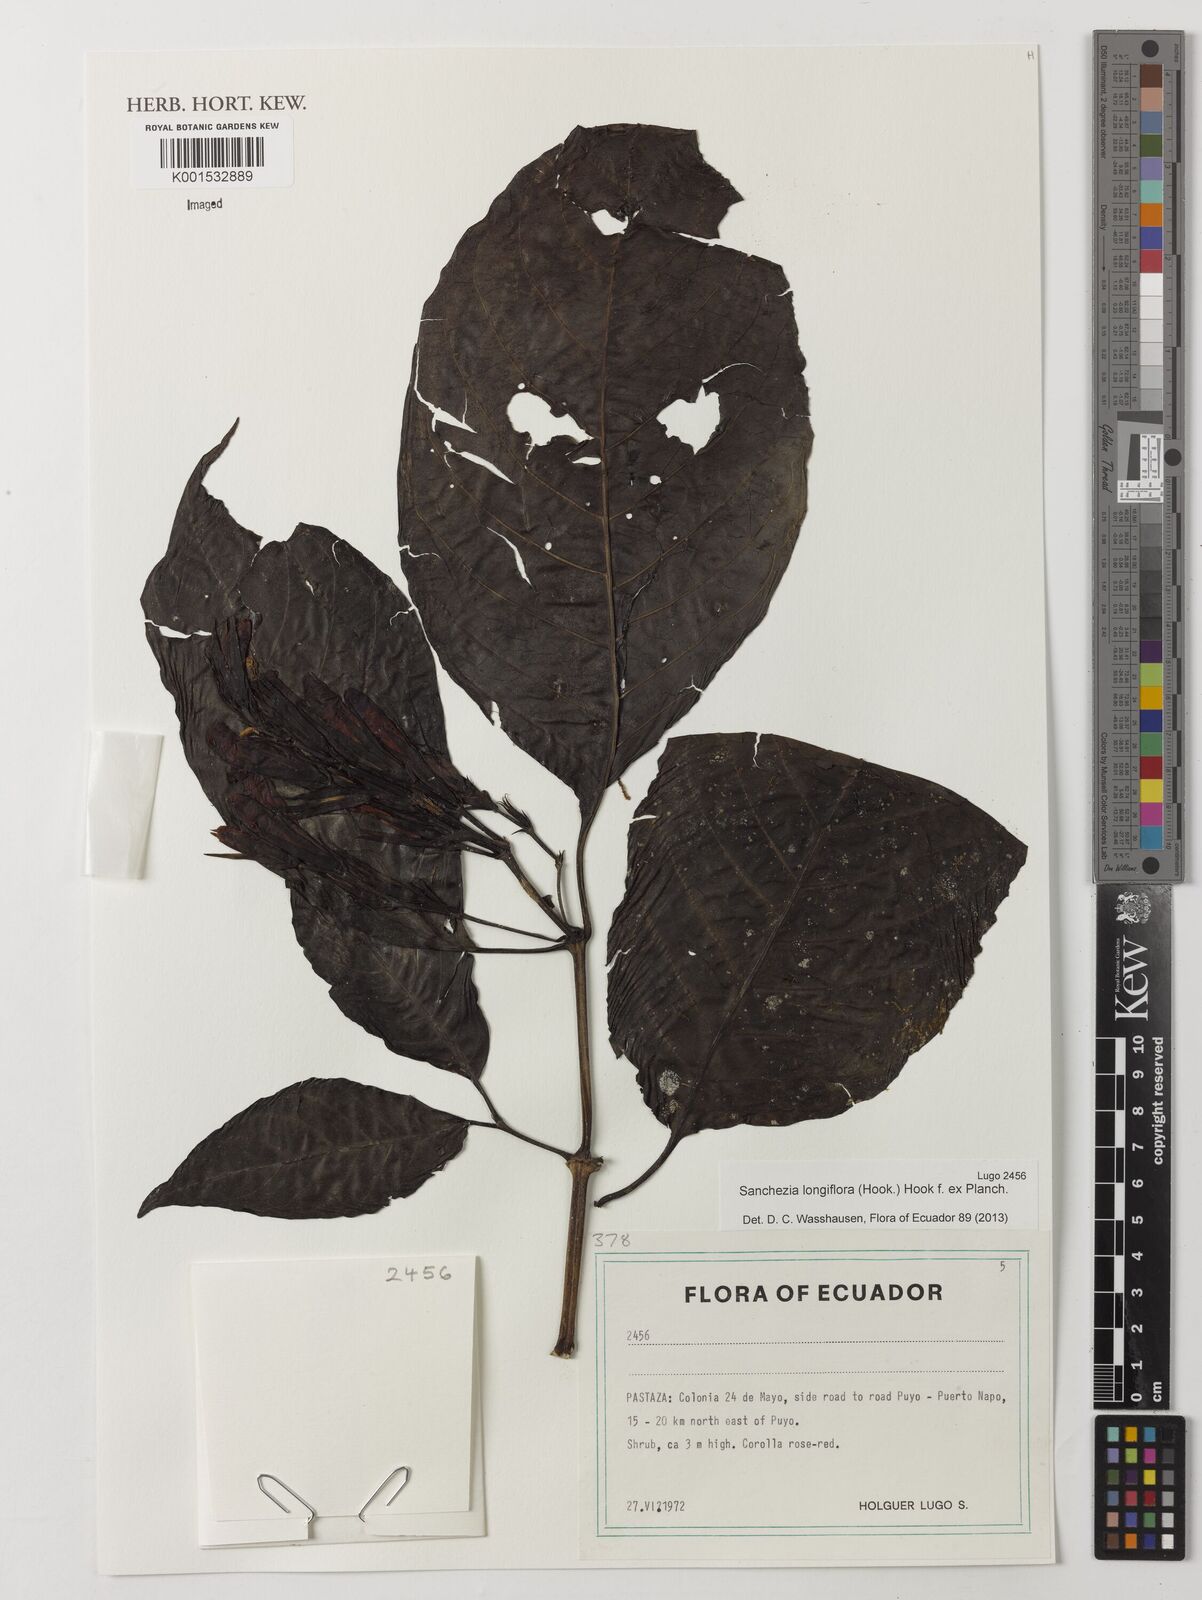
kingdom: Plantae
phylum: Tracheophyta
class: Magnoliopsida
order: Lamiales
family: Acanthaceae
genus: Sanchezia
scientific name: Sanchezia longiflora
